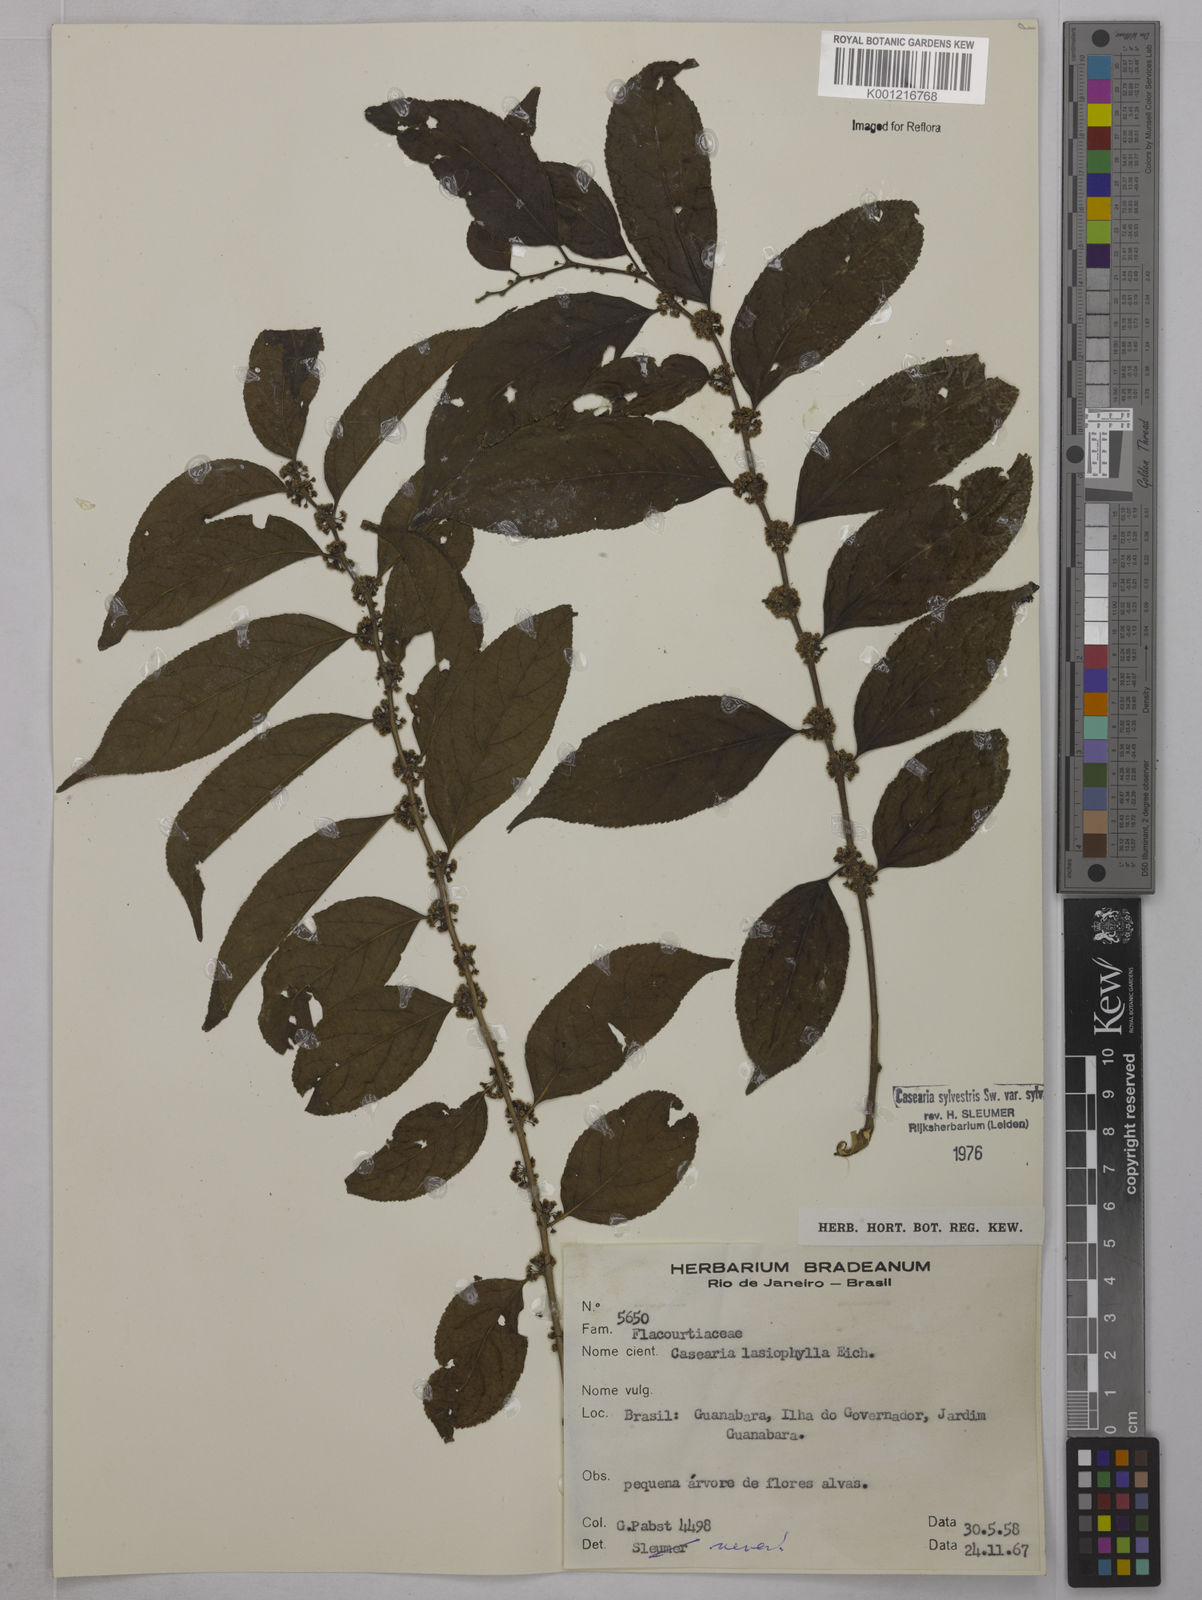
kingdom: Plantae
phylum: Tracheophyta
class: Magnoliopsida
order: Malpighiales
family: Salicaceae
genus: Casearia
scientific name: Casearia sylvestris
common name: Wild sage
